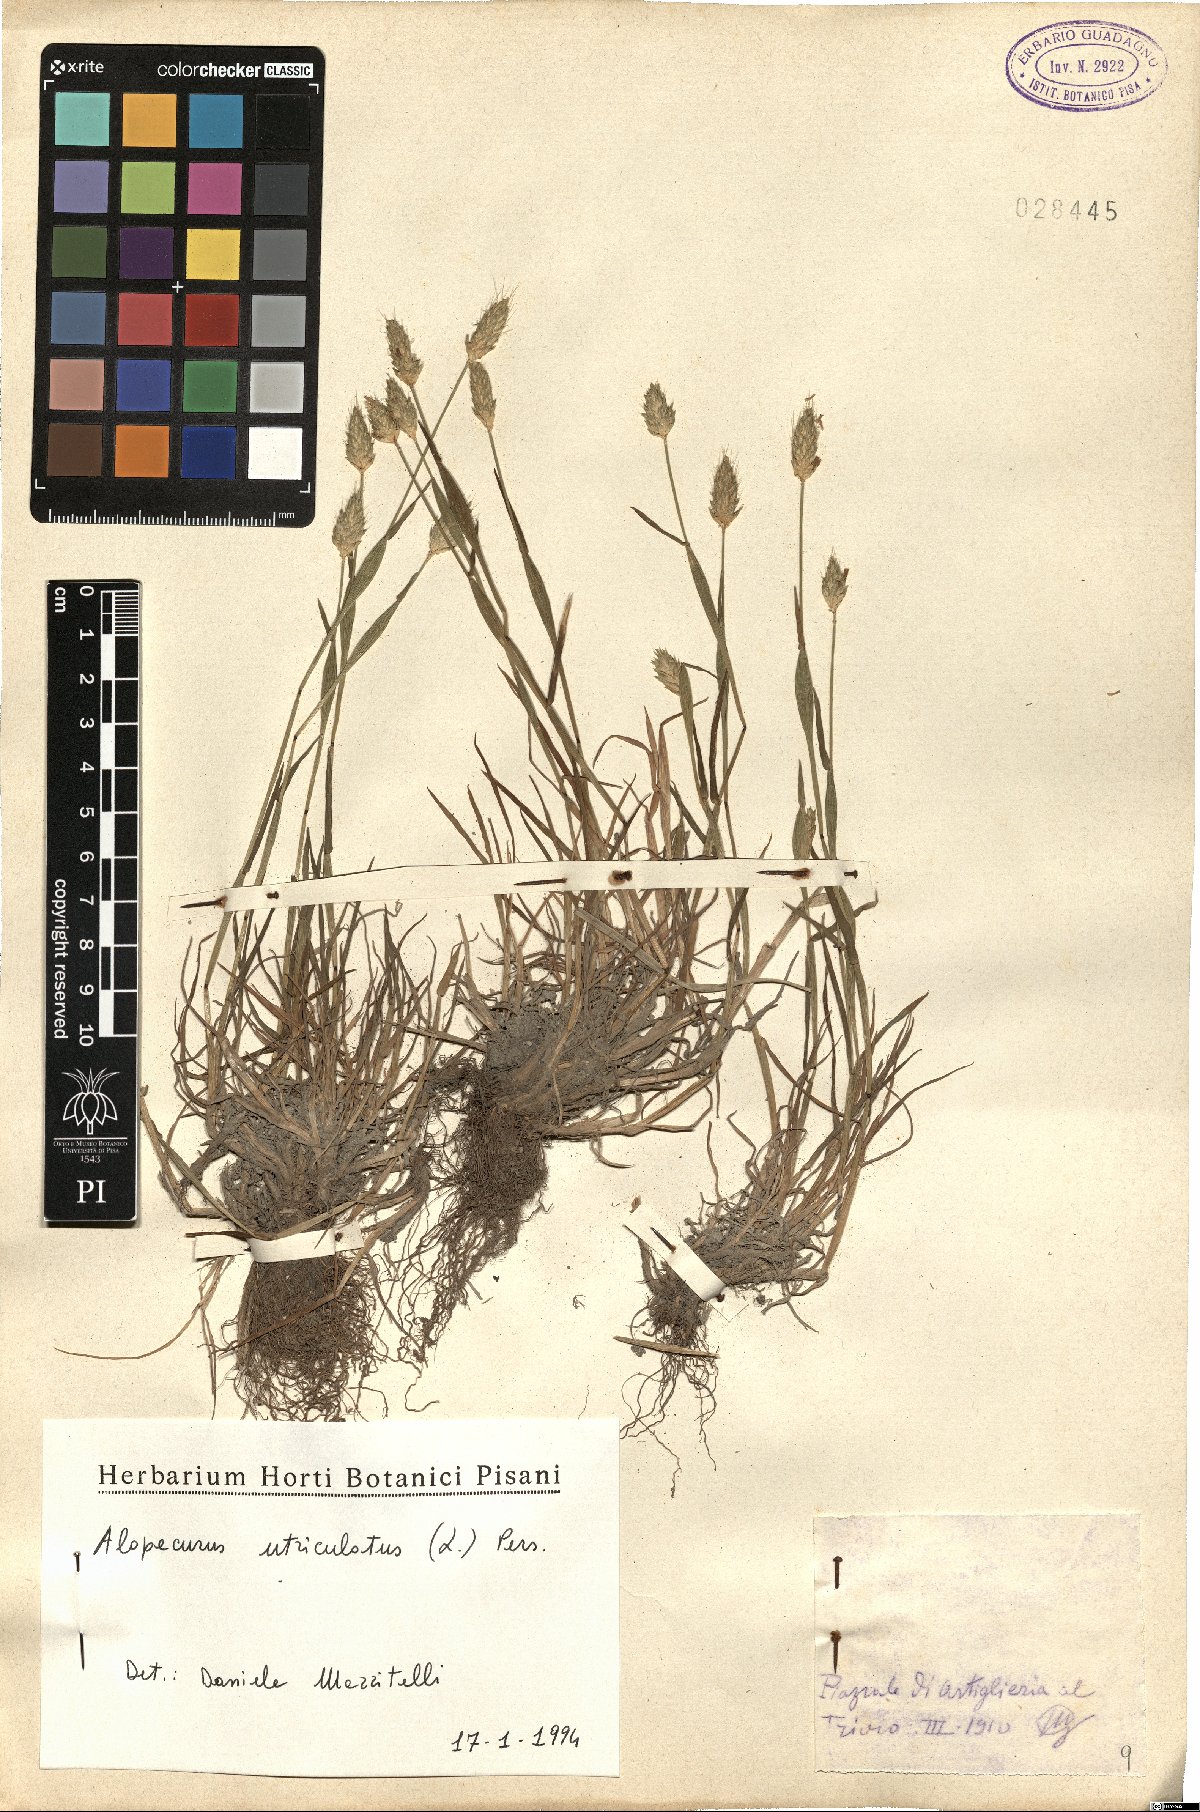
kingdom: Plantae
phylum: Tracheophyta
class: Liliopsida
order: Poales
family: Poaceae
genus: Alopecurus
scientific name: Alopecurus rendlei
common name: Rendle's meadow foxtail
